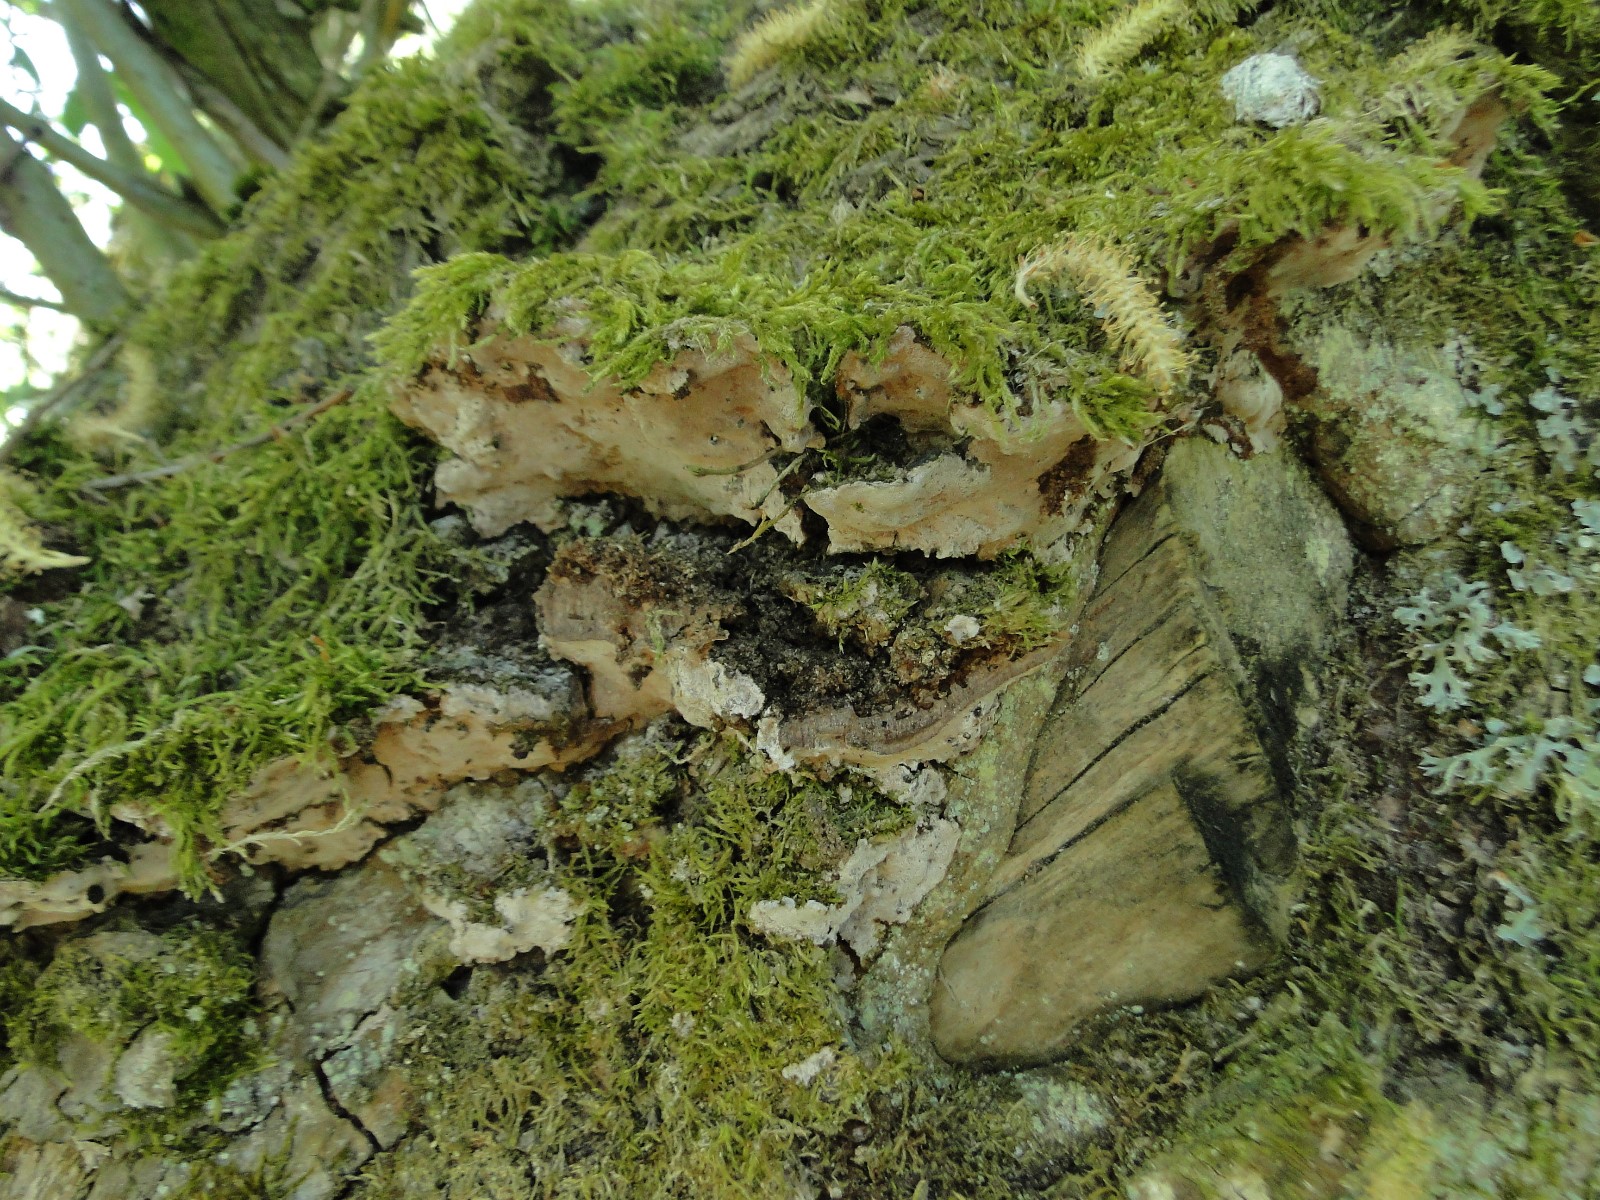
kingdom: Fungi
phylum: Basidiomycota
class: Agaricomycetes
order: Hymenochaetales
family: Hymenochaetaceae
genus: Phellinopsis
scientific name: Phellinopsis conchata
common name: pile-ildporesvamp
